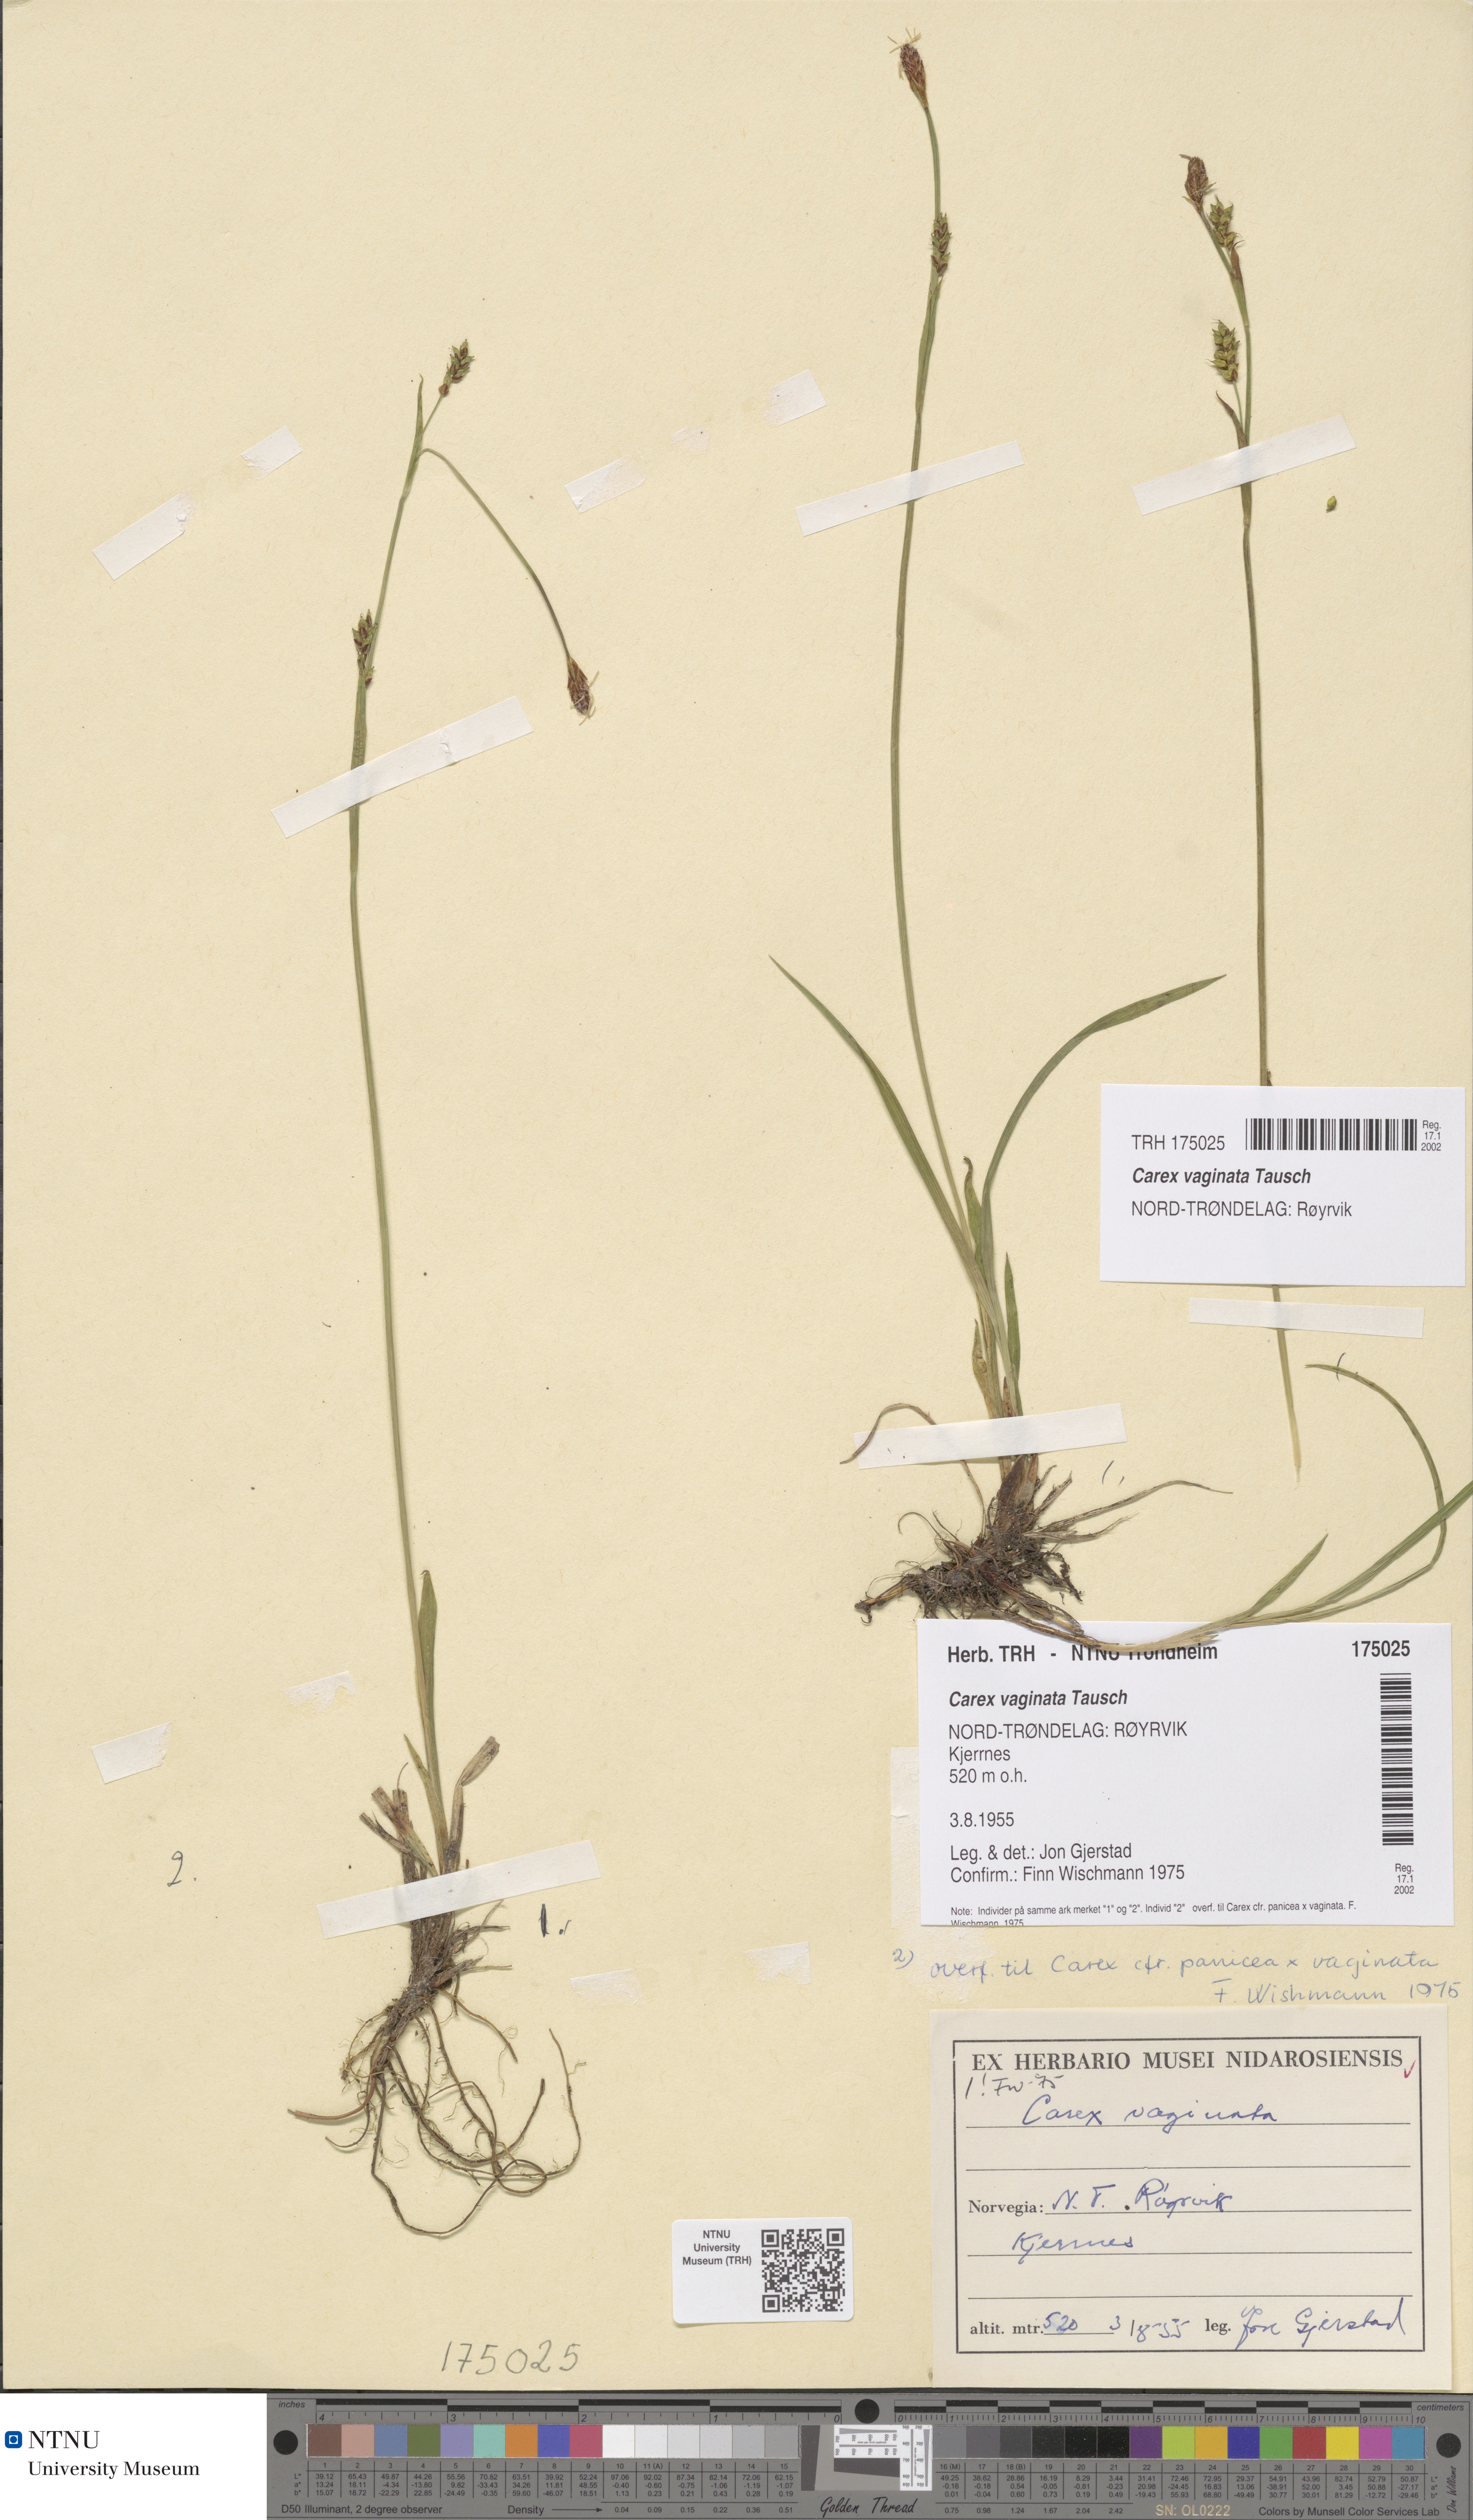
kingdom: Plantae
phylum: Tracheophyta
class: Liliopsida
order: Poales
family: Cyperaceae
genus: Carex
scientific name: Carex vaginata
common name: Sheathed sedge
